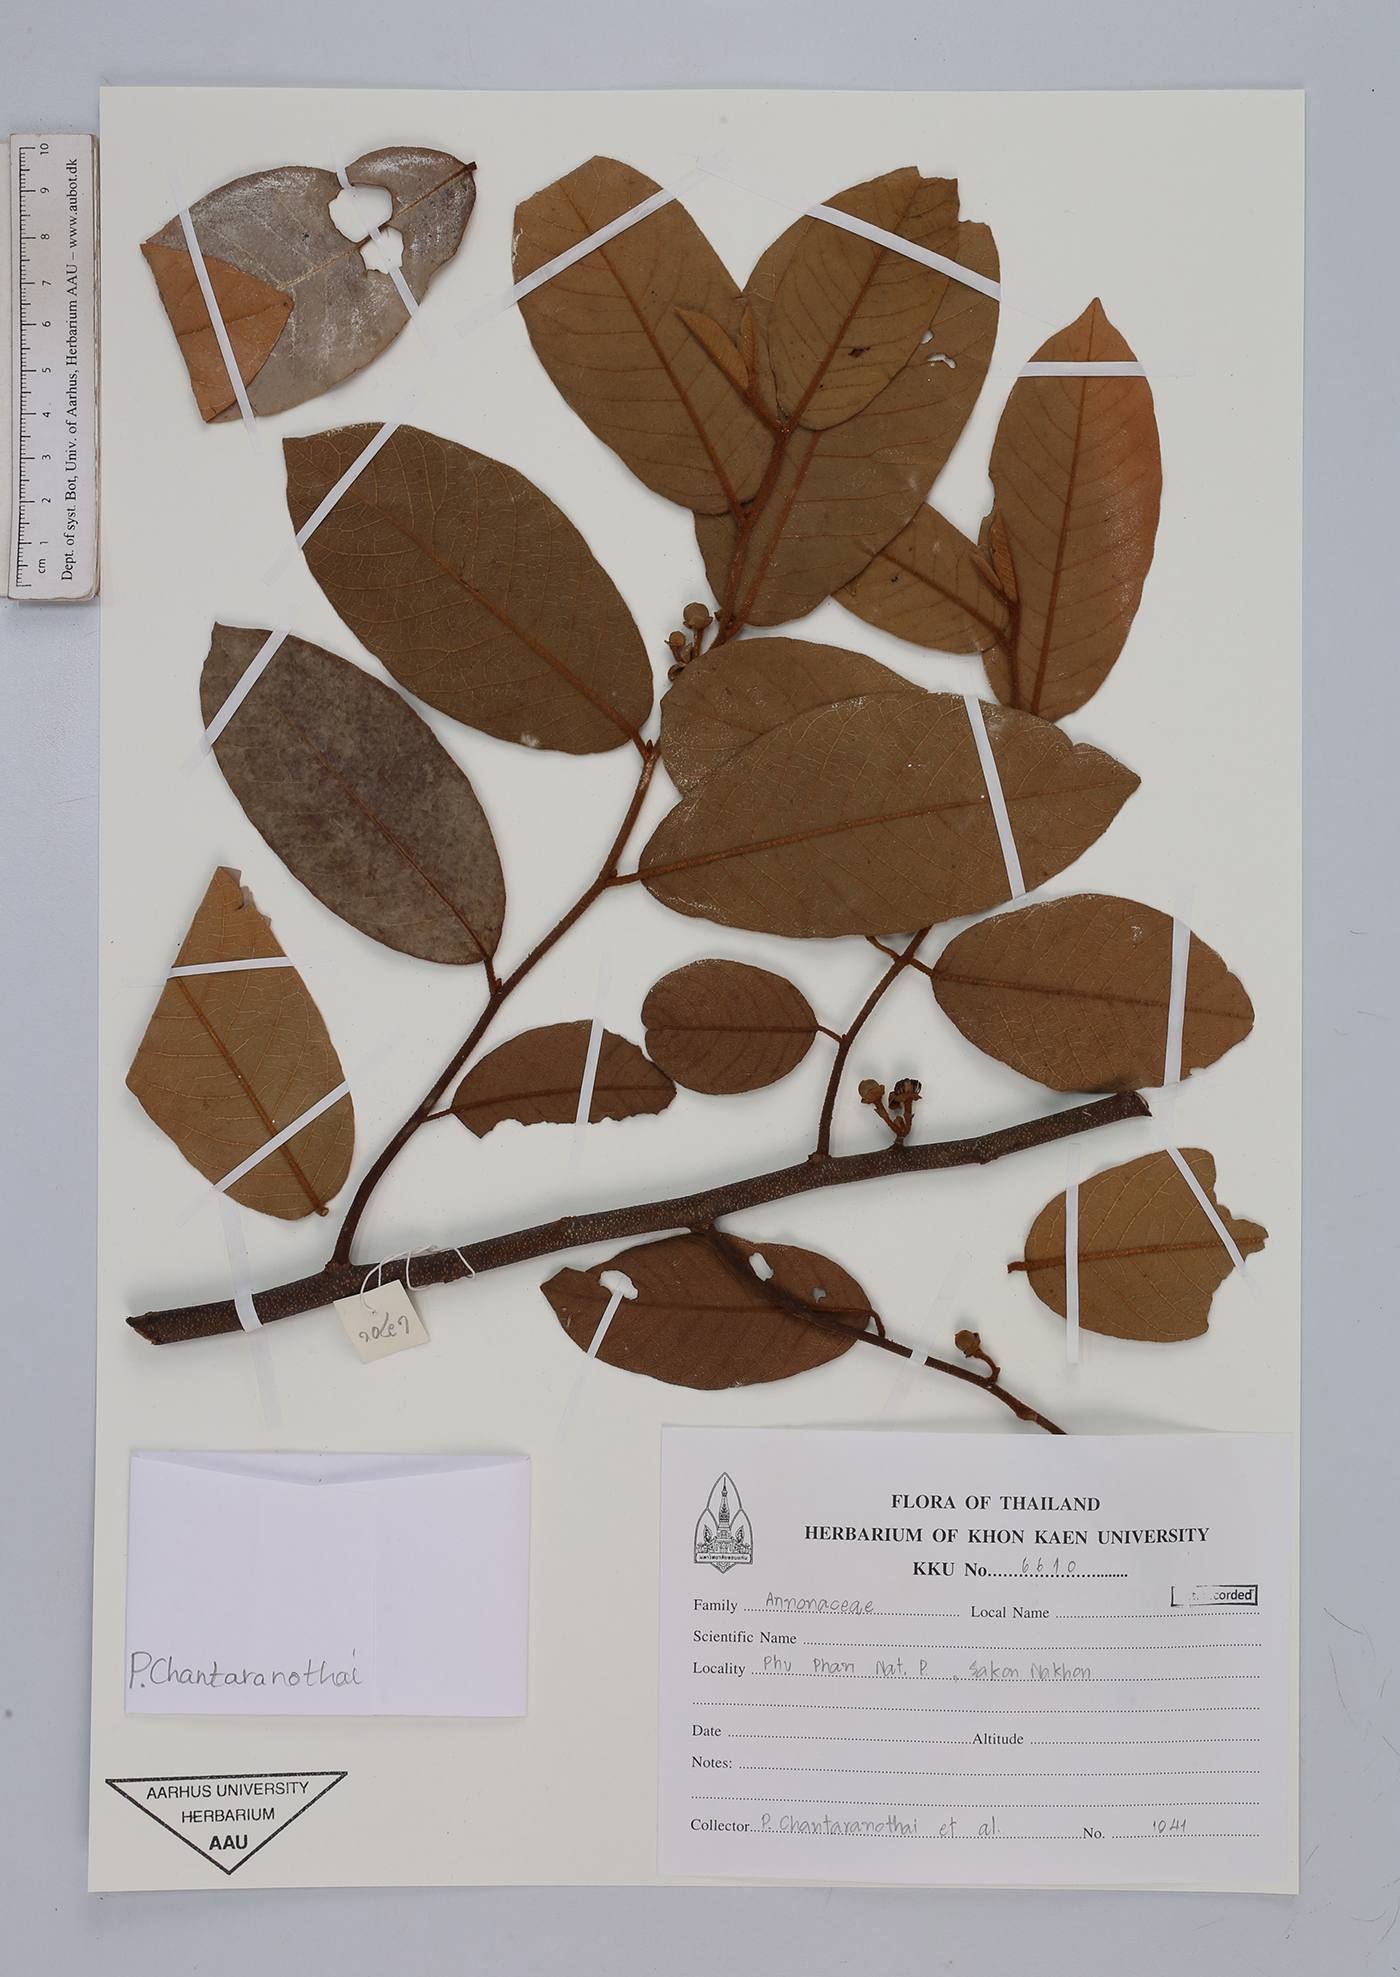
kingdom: Plantae
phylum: Tracheophyta
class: Magnoliopsida
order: Magnoliales
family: Annonaceae
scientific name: Annonaceae
